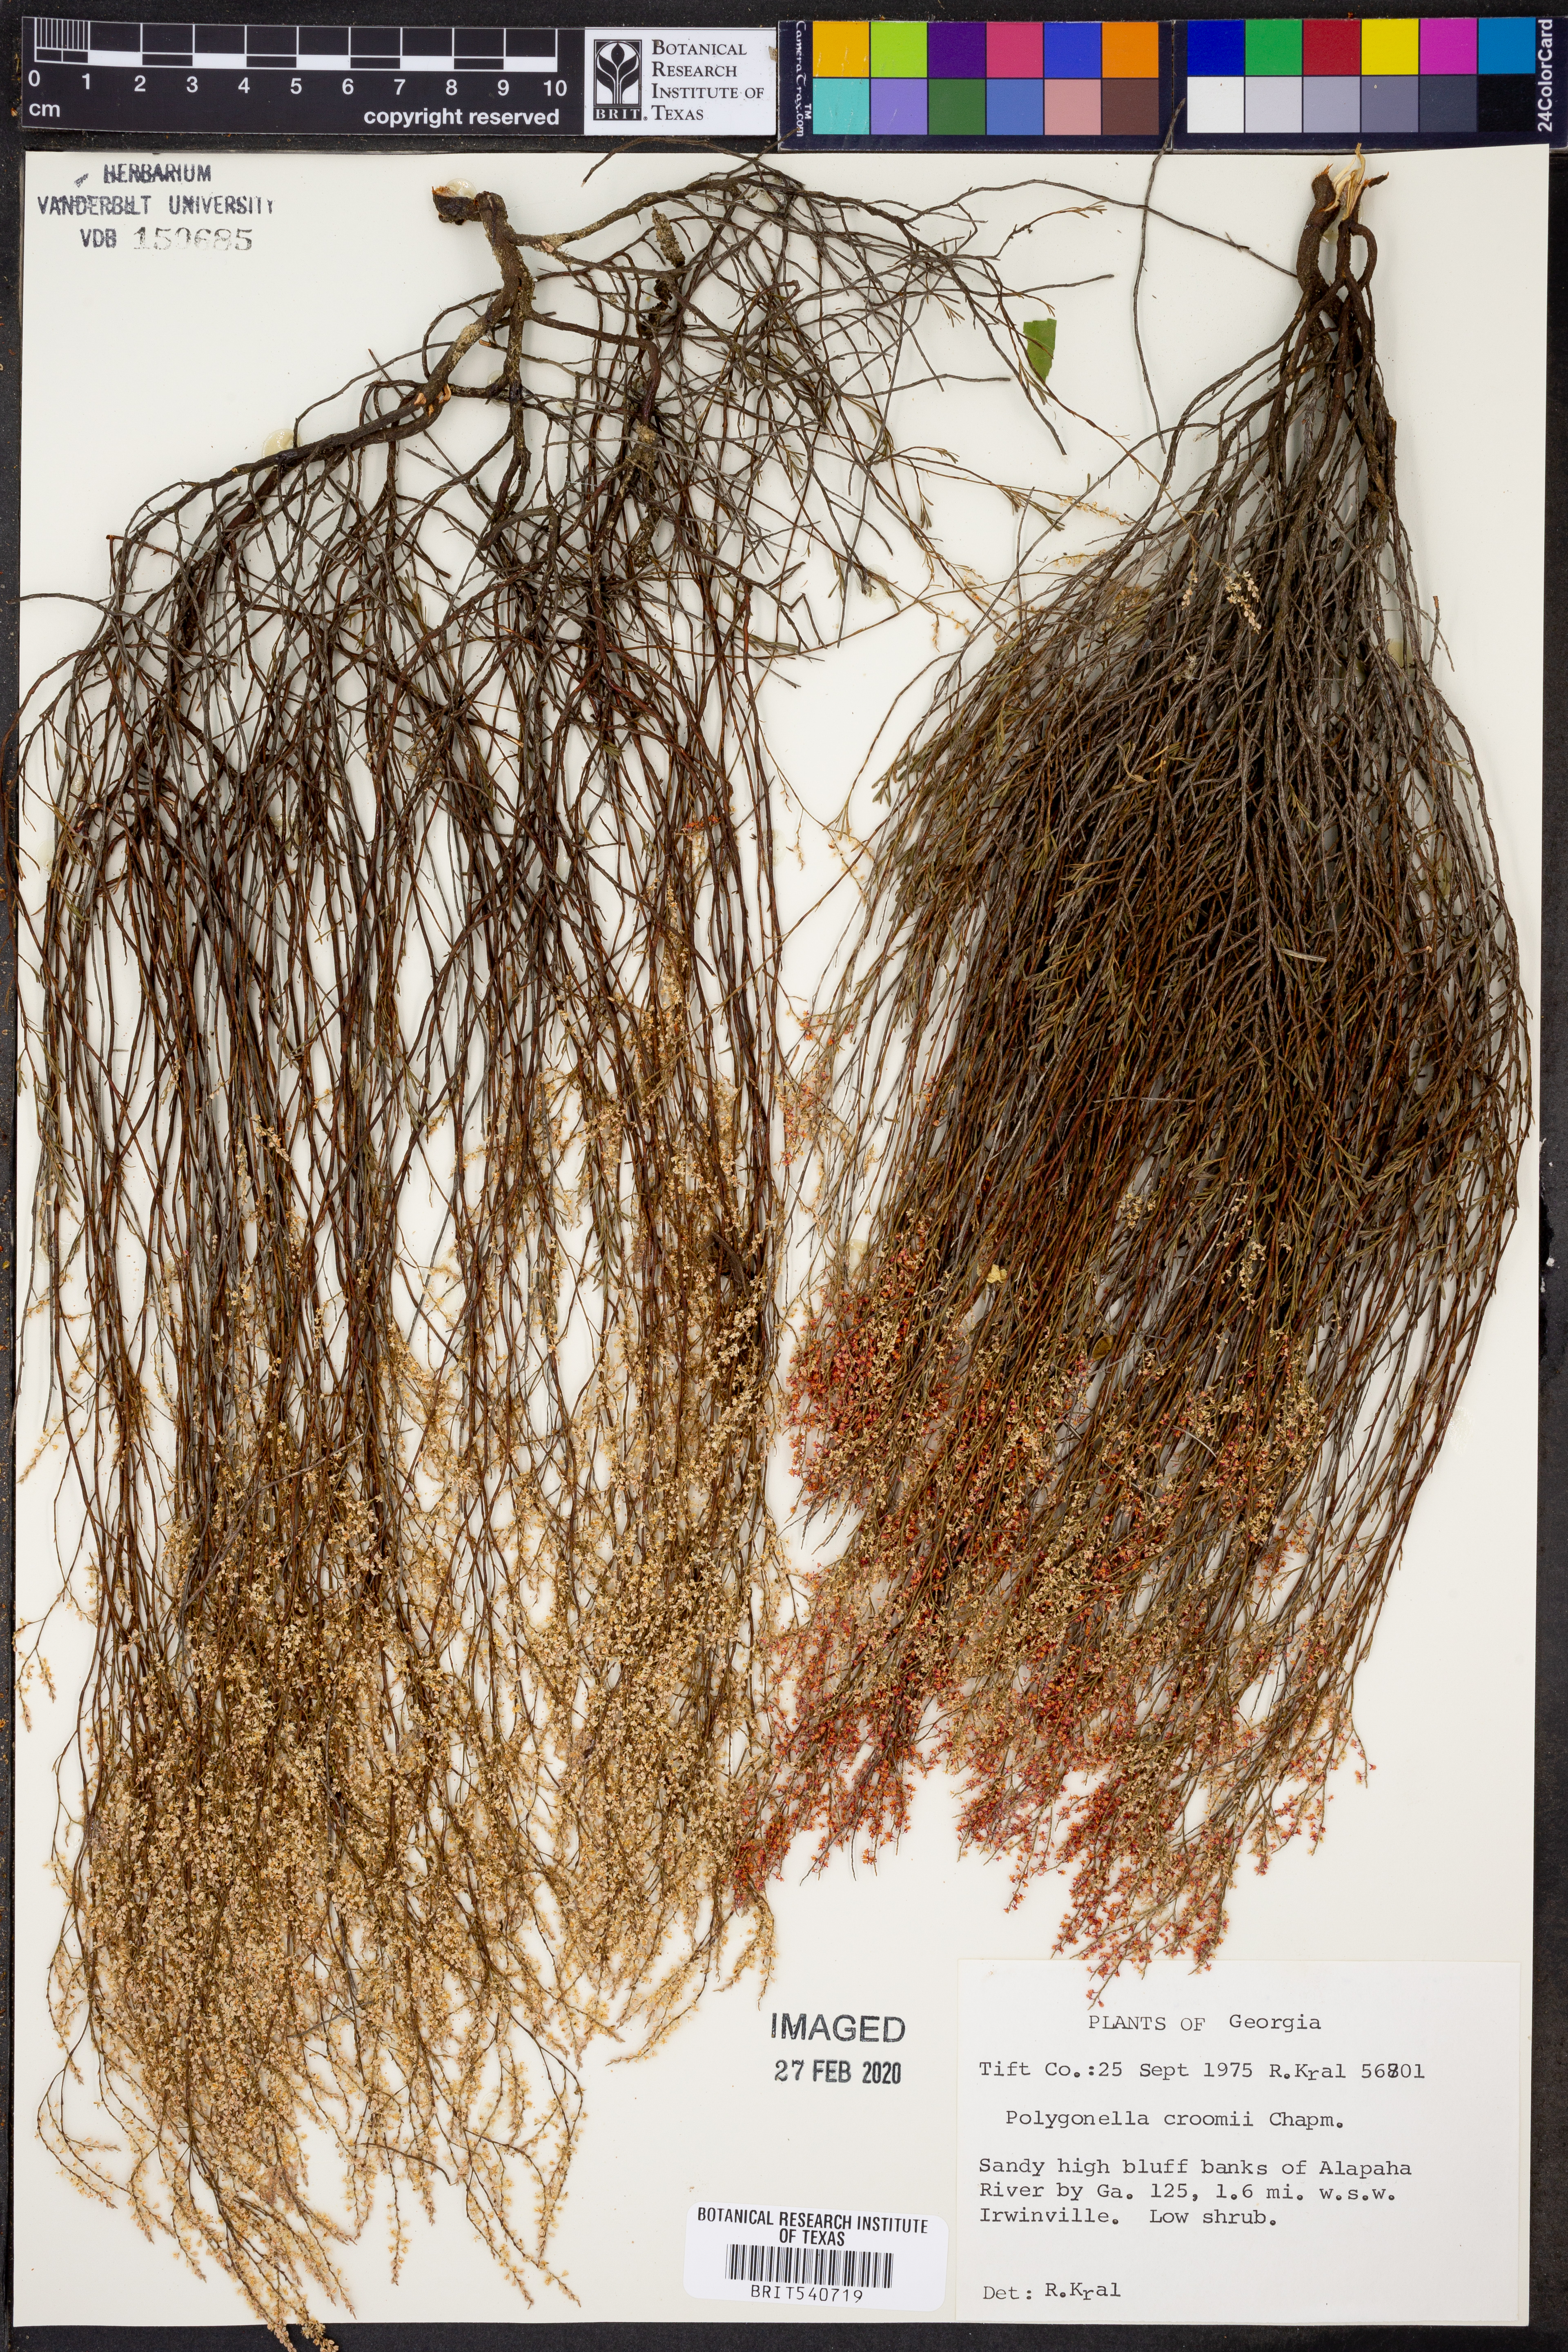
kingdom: Plantae
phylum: Tracheophyta
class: Magnoliopsida
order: Caryophyllales
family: Polygonaceae
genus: Polygonella
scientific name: Polygonella polygama
